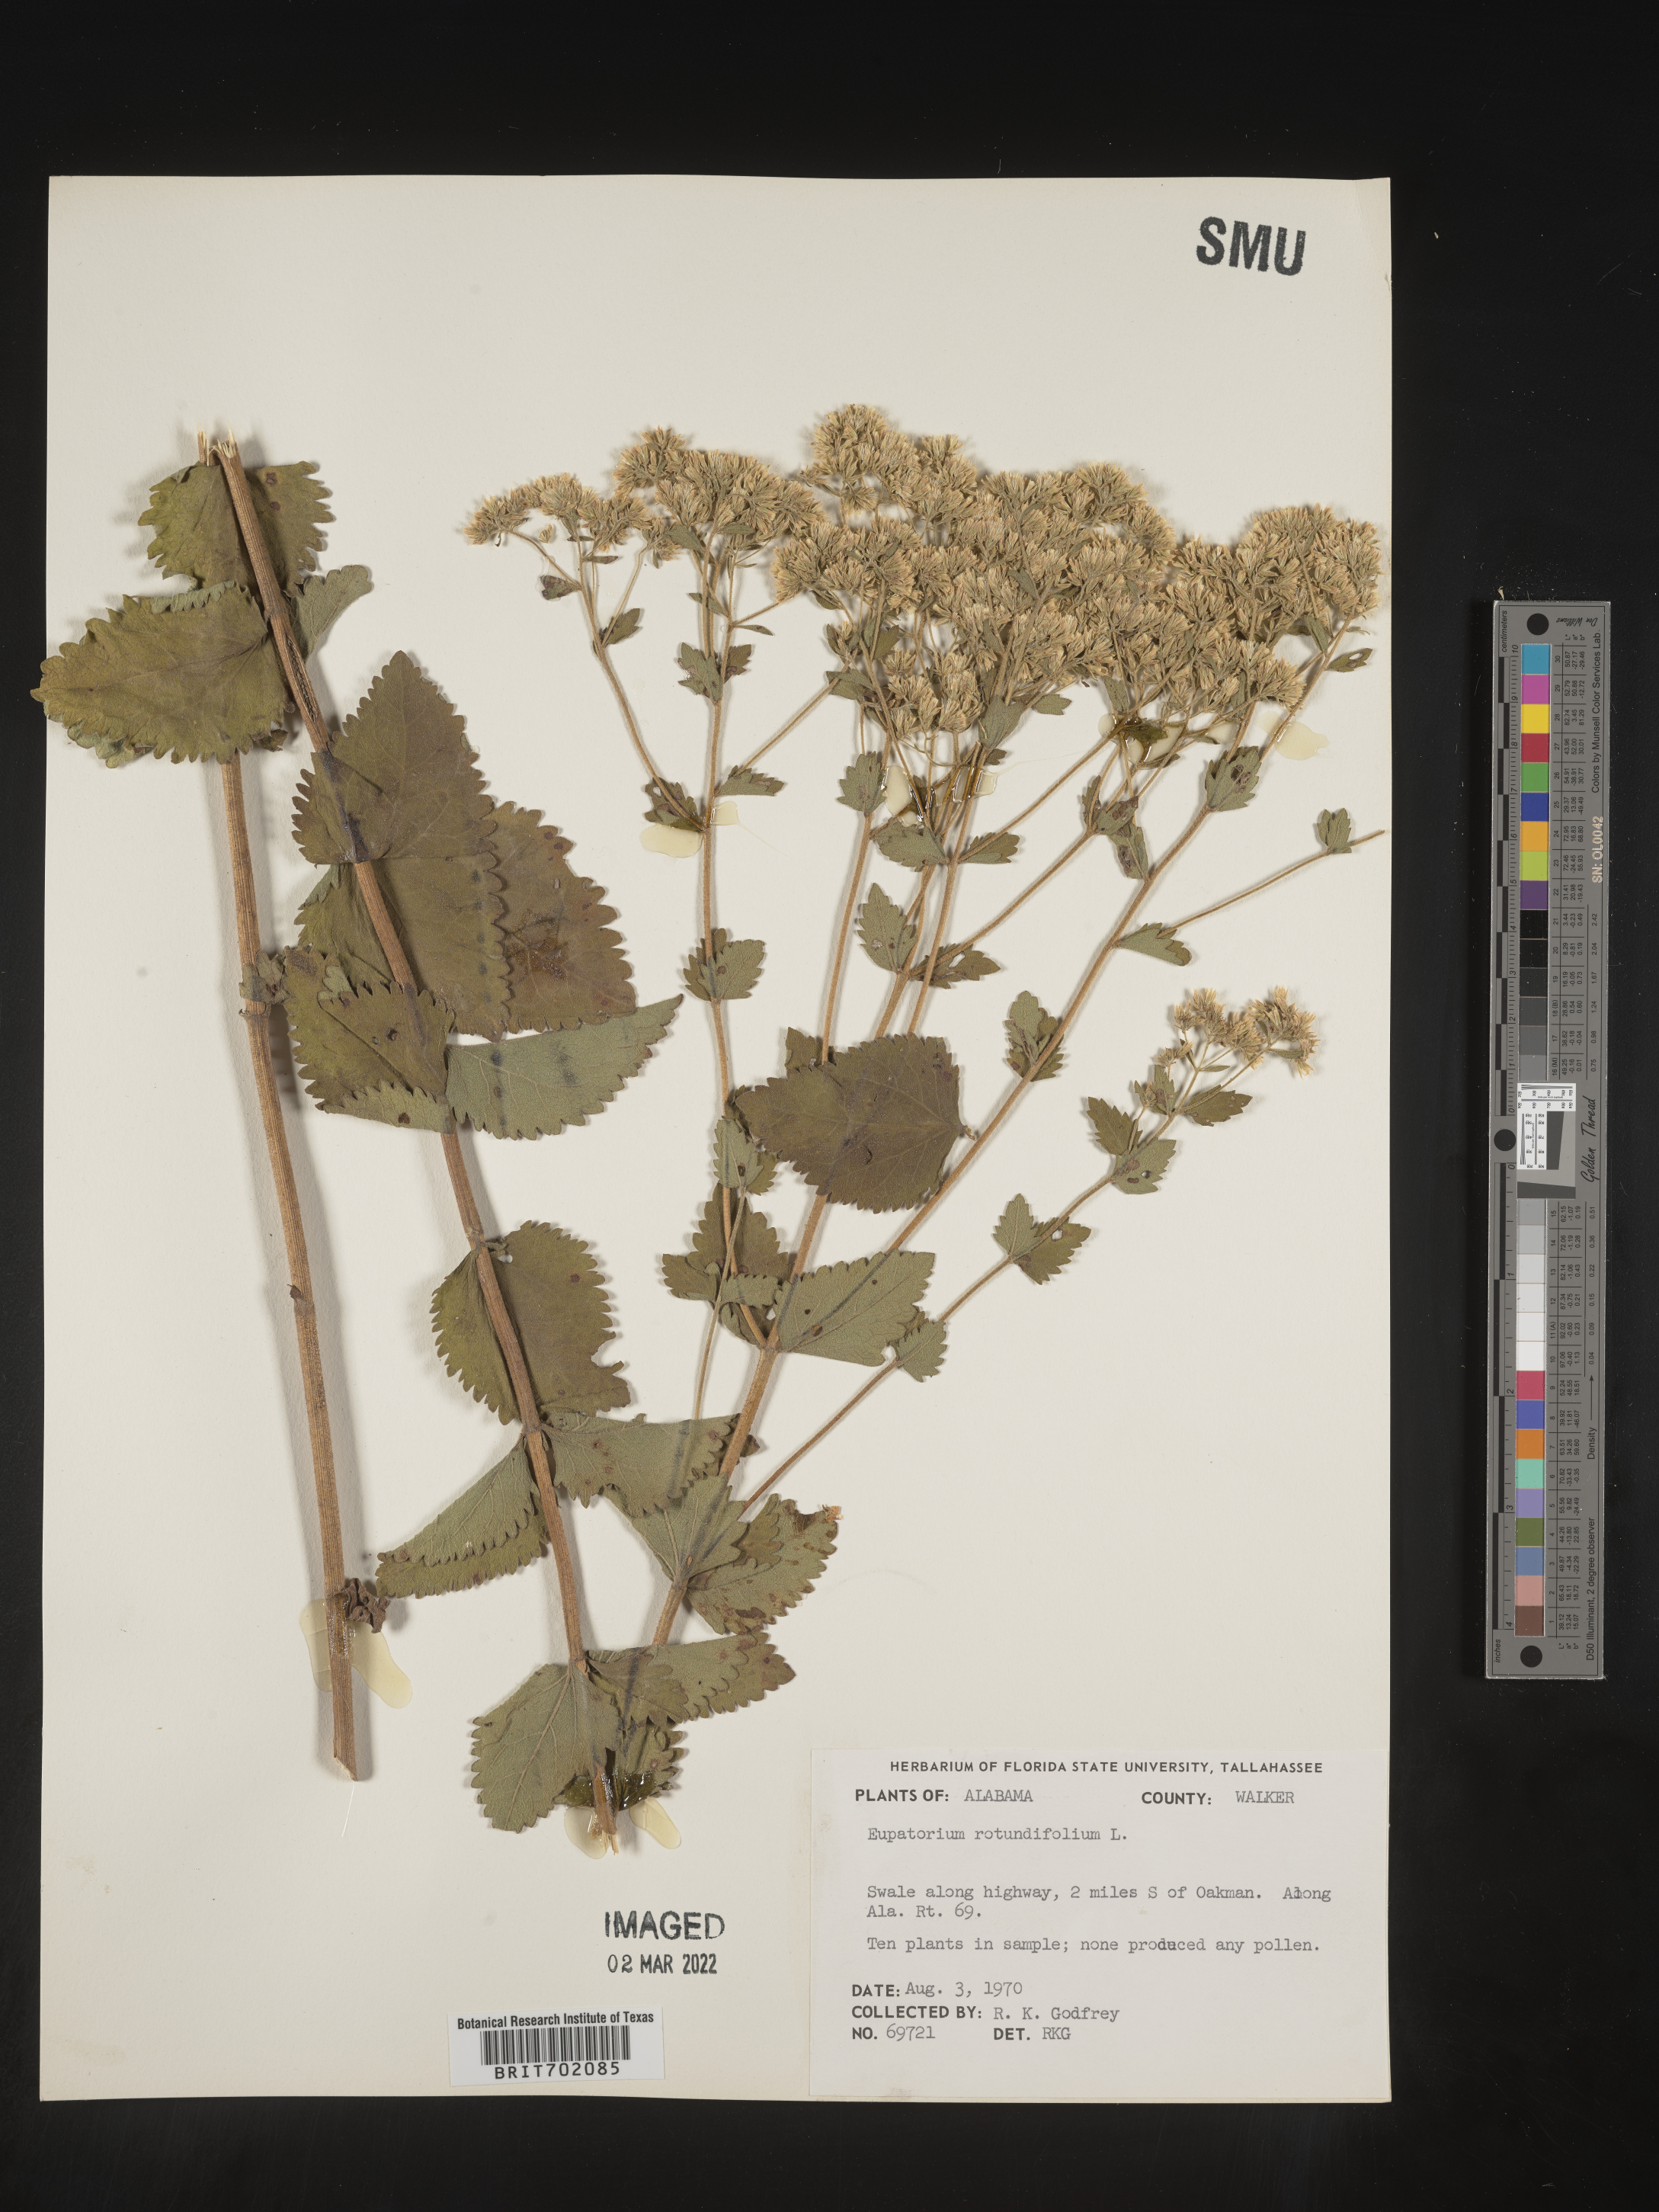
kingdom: Plantae
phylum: Tracheophyta
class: Magnoliopsida
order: Asterales
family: Asteraceae
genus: Eupatorium
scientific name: Eupatorium rotundifolium
